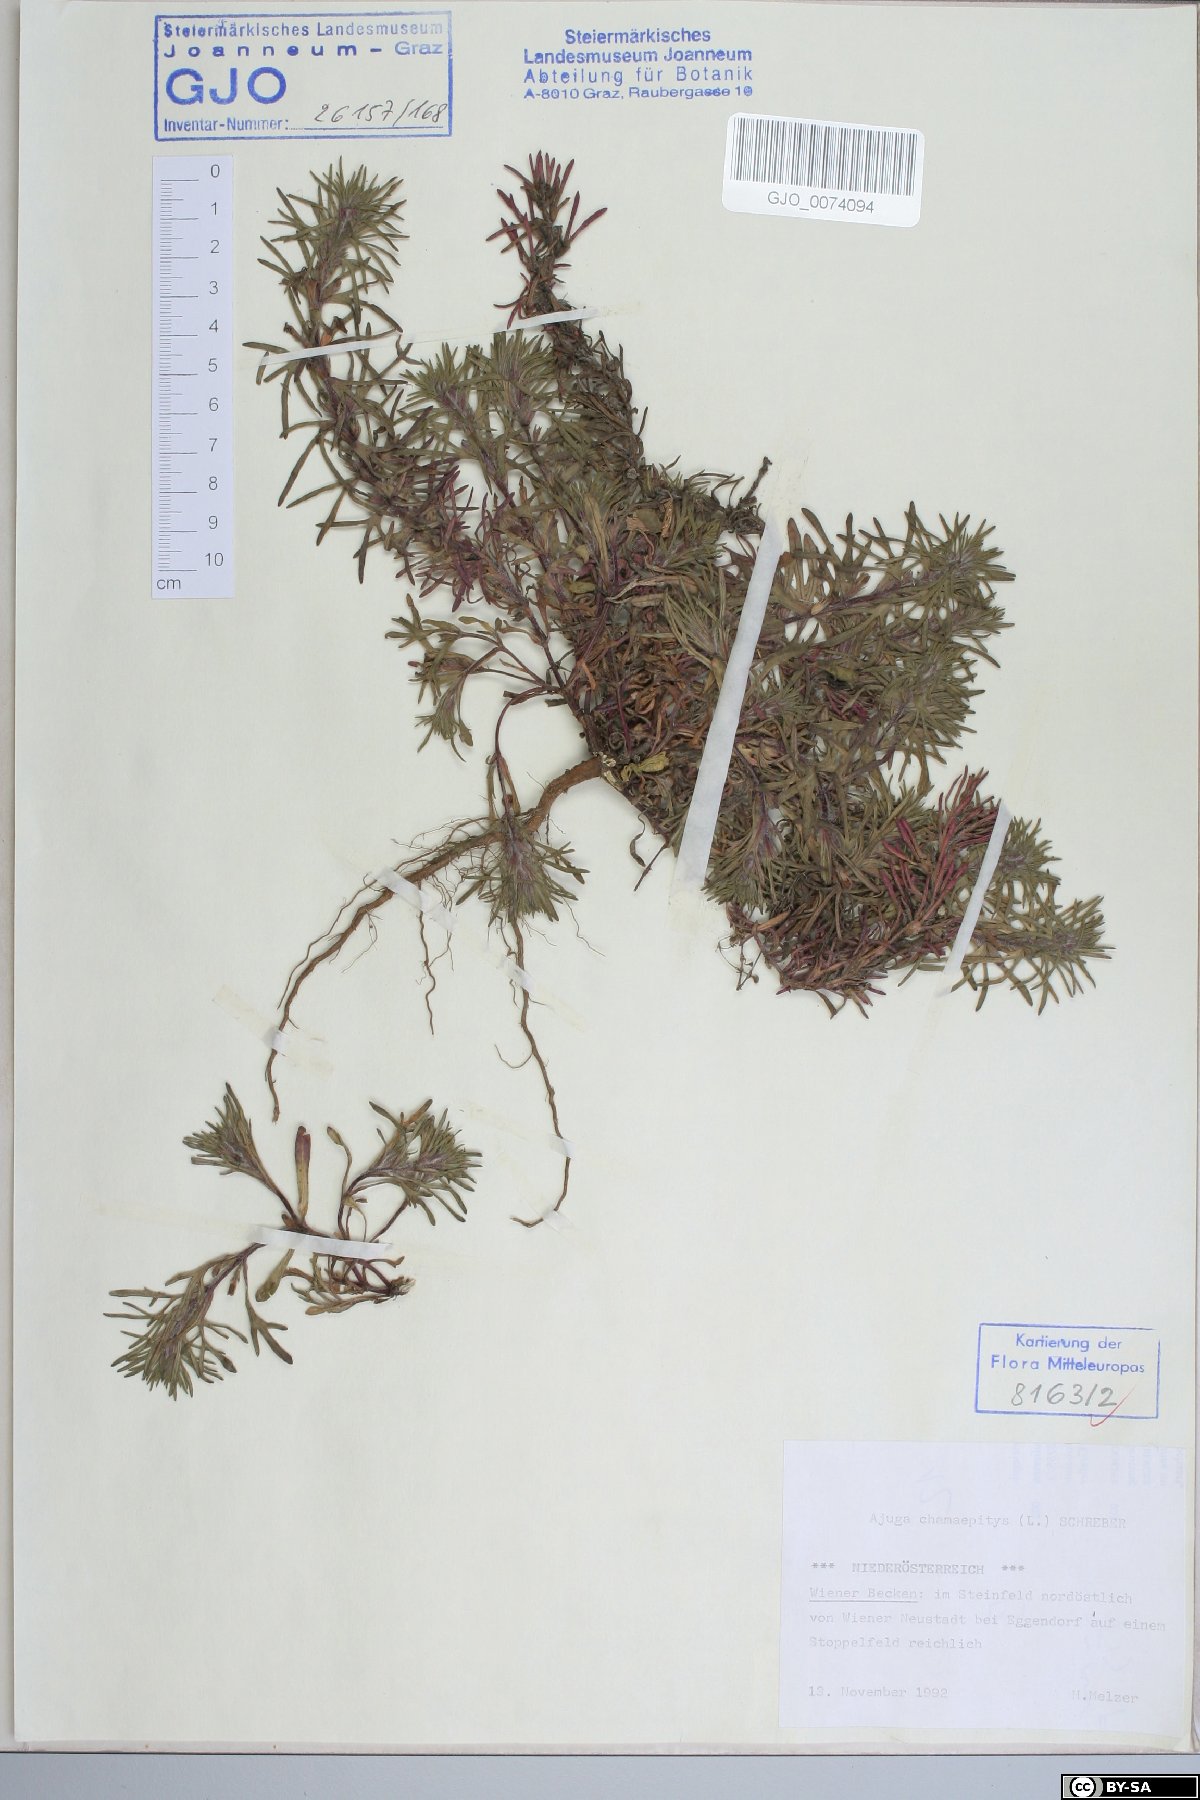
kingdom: Plantae
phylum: Tracheophyta
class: Magnoliopsida
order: Lamiales
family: Lamiaceae
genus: Ajuga
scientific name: Ajuga chamaepitys
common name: Ground-pine
